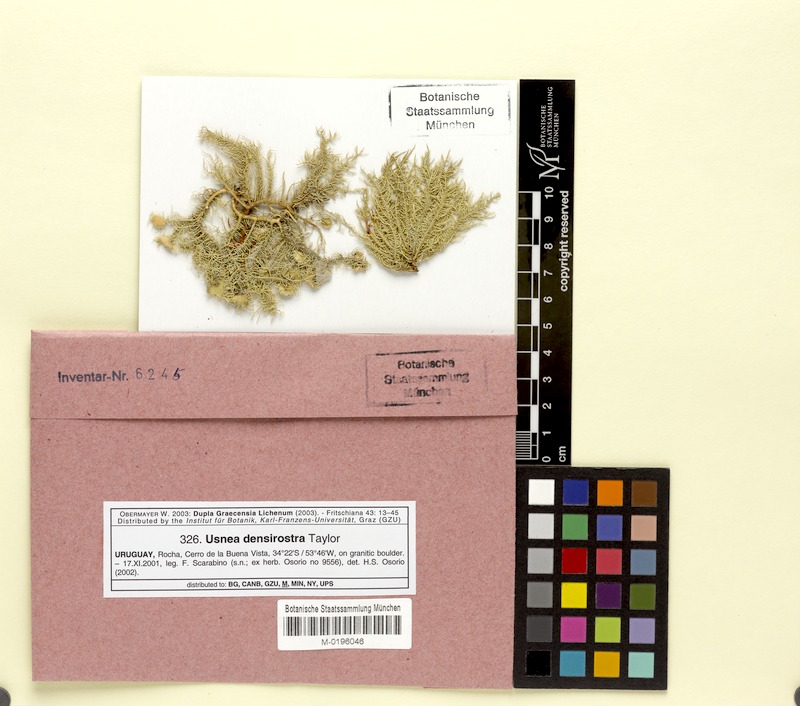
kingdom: Fungi
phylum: Ascomycota
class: Lecanoromycetes
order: Lecanorales
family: Parmeliaceae
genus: Usnea
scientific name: Usnea densirostra
